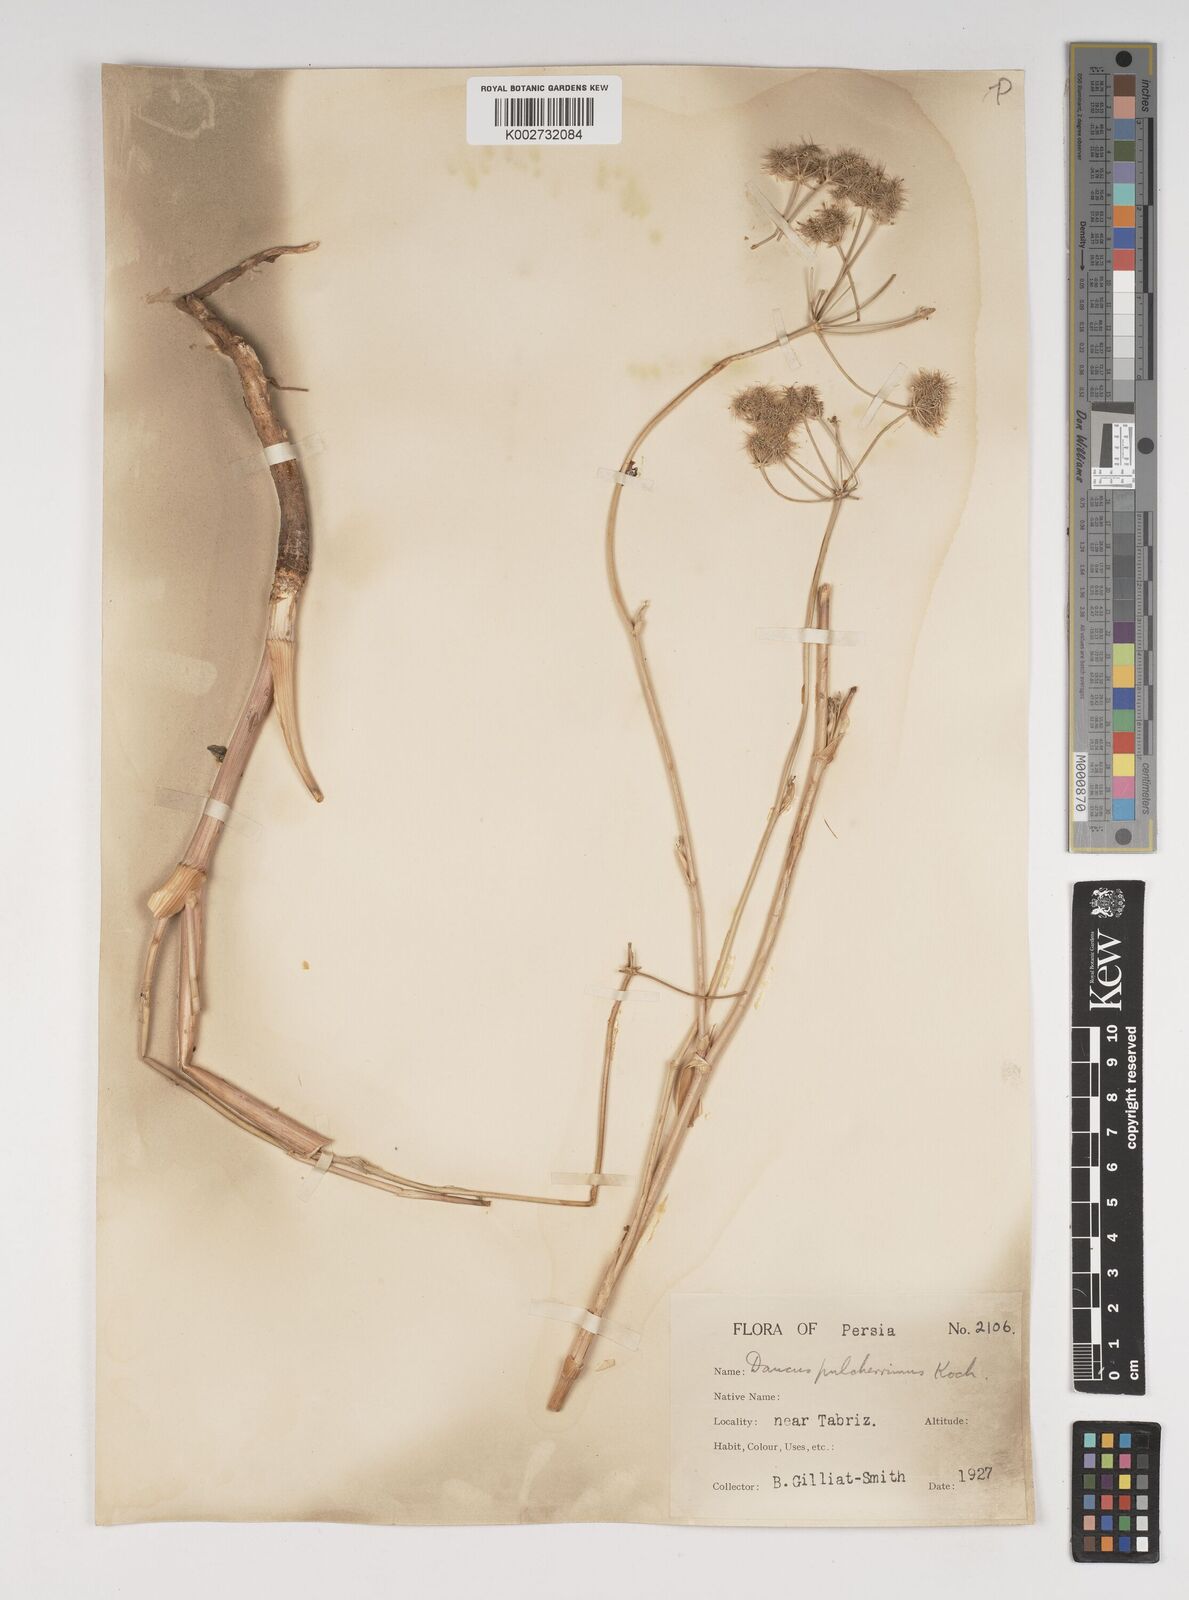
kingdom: Plantae
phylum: Tracheophyta
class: Magnoliopsida
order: Apiales
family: Apiaceae
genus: Astrodaucus
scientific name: Astrodaucus
